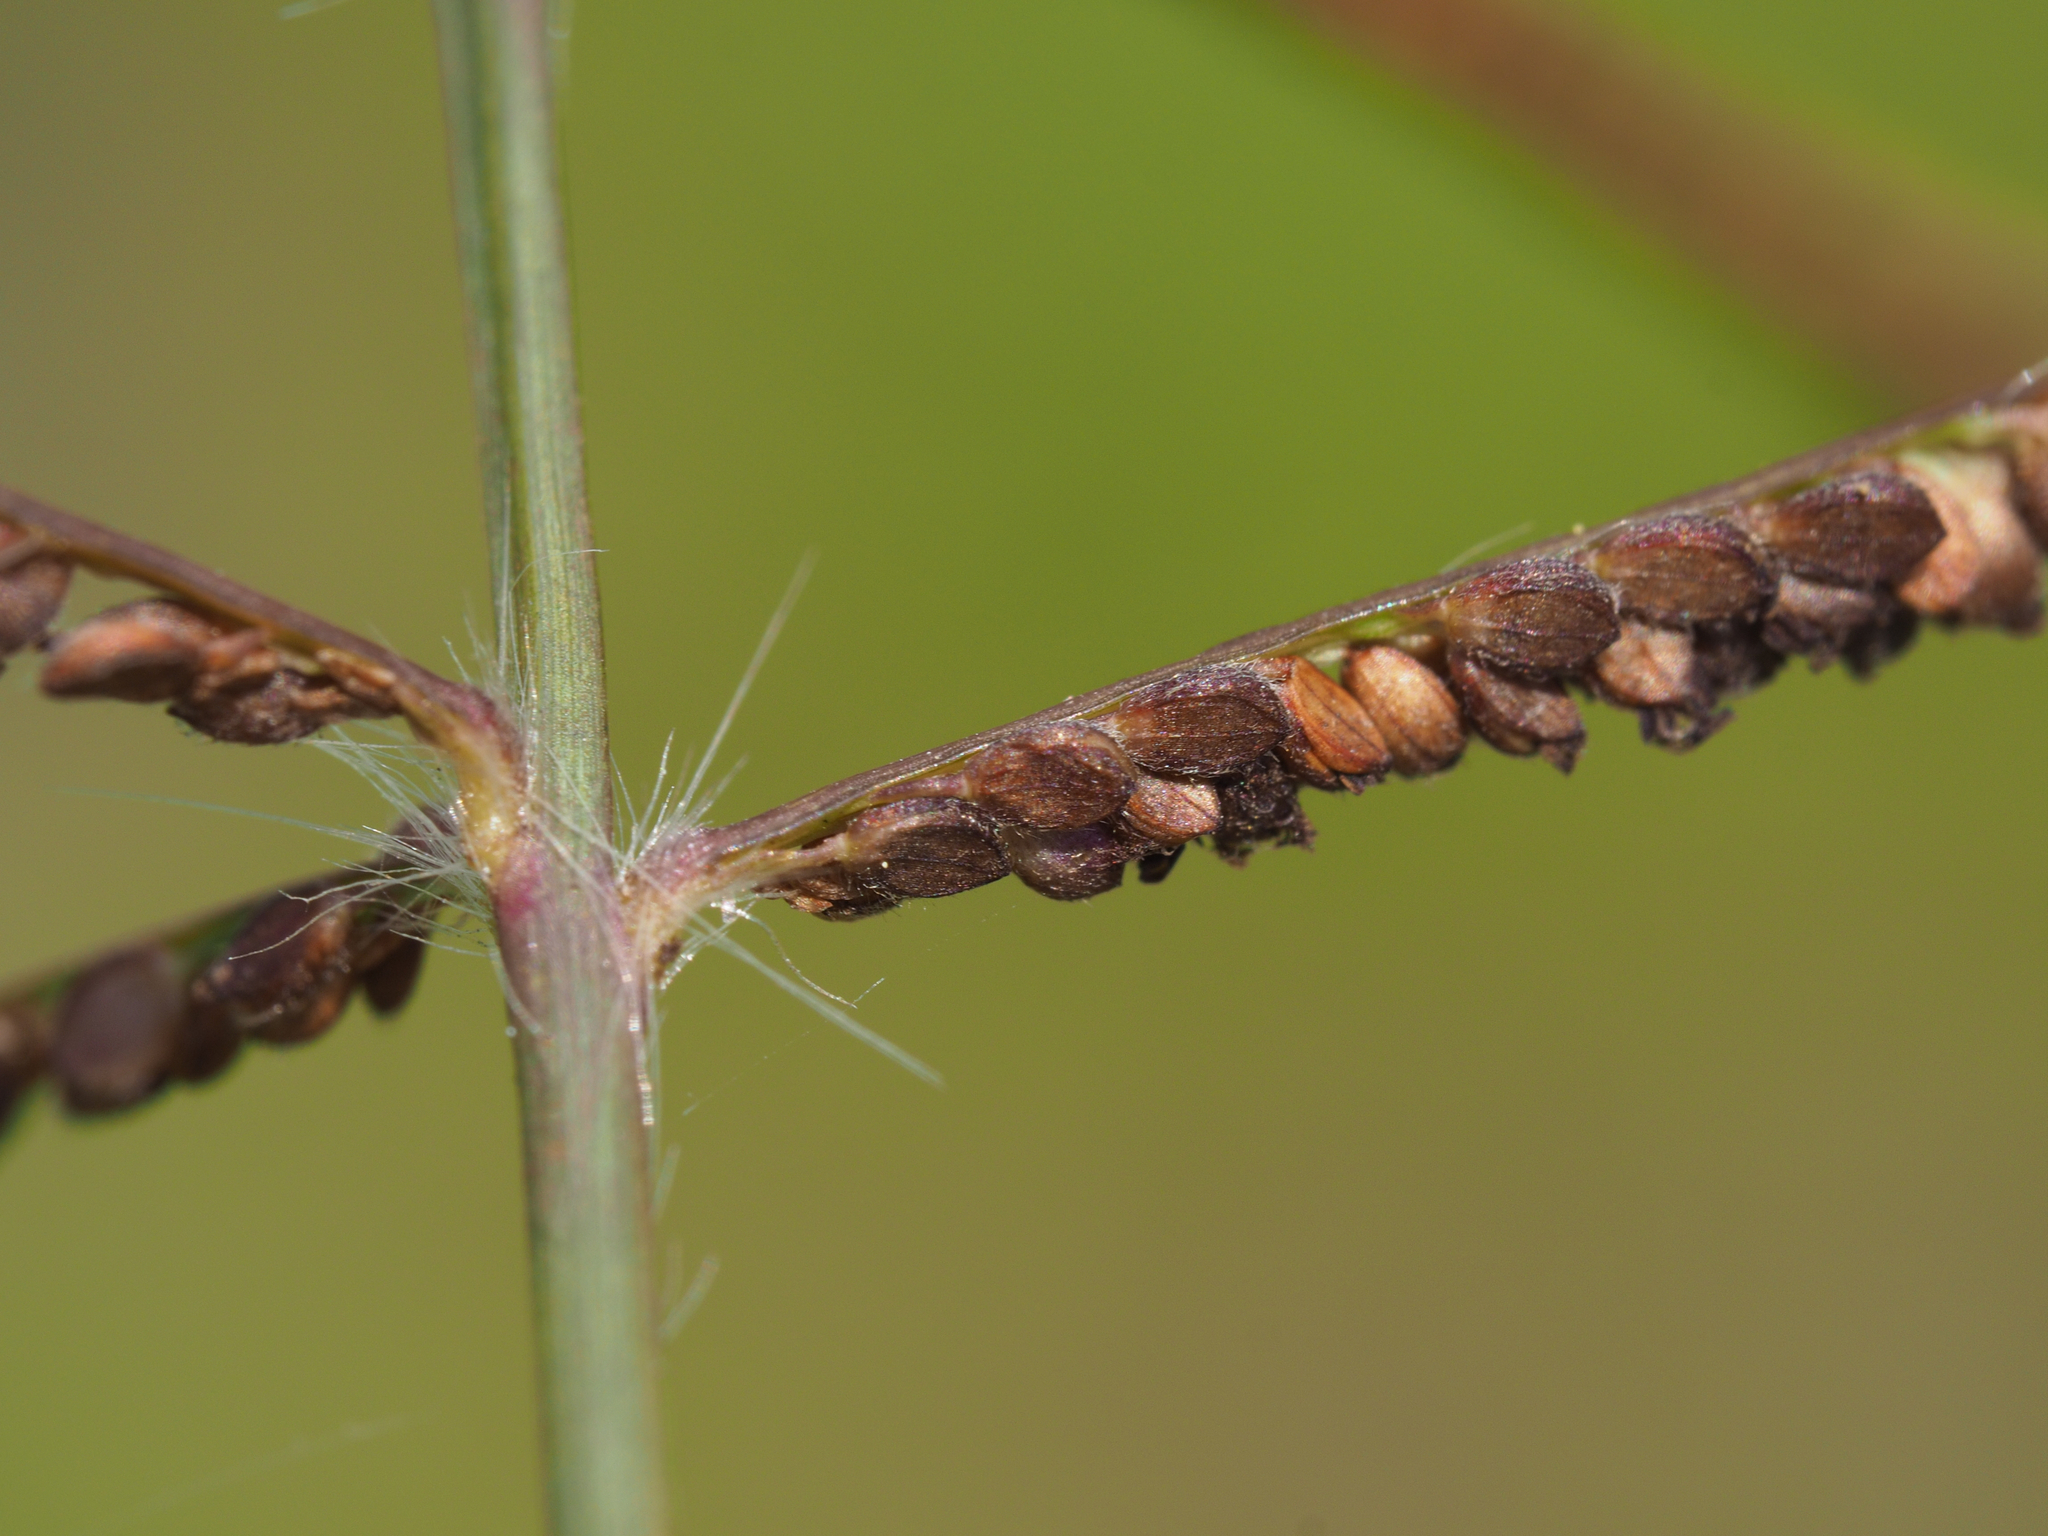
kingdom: Plantae
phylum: Tracheophyta
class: Liliopsida
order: Poales
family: Poaceae
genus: Paspalum
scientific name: Paspalum paniculatum
